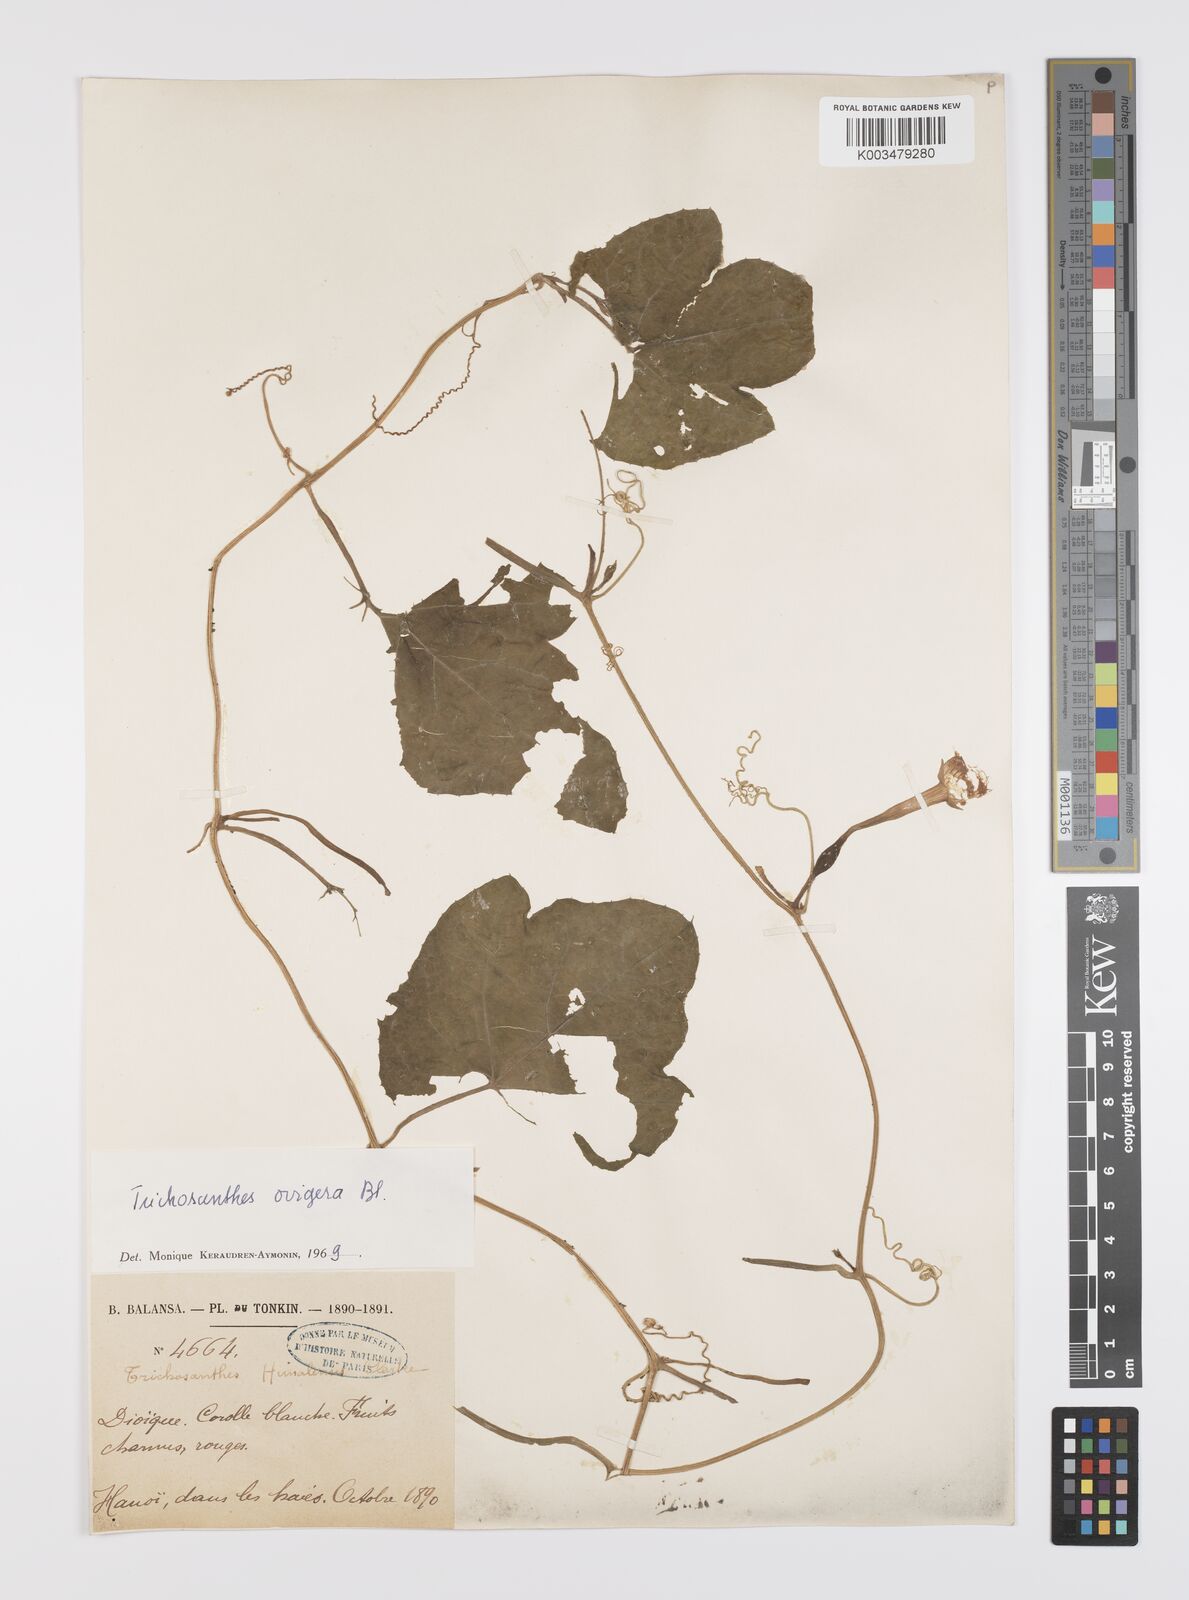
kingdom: Plantae
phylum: Tracheophyta
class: Magnoliopsida
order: Cucurbitales
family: Cucurbitaceae
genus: Trichosanthes
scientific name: Trichosanthes ovigera
